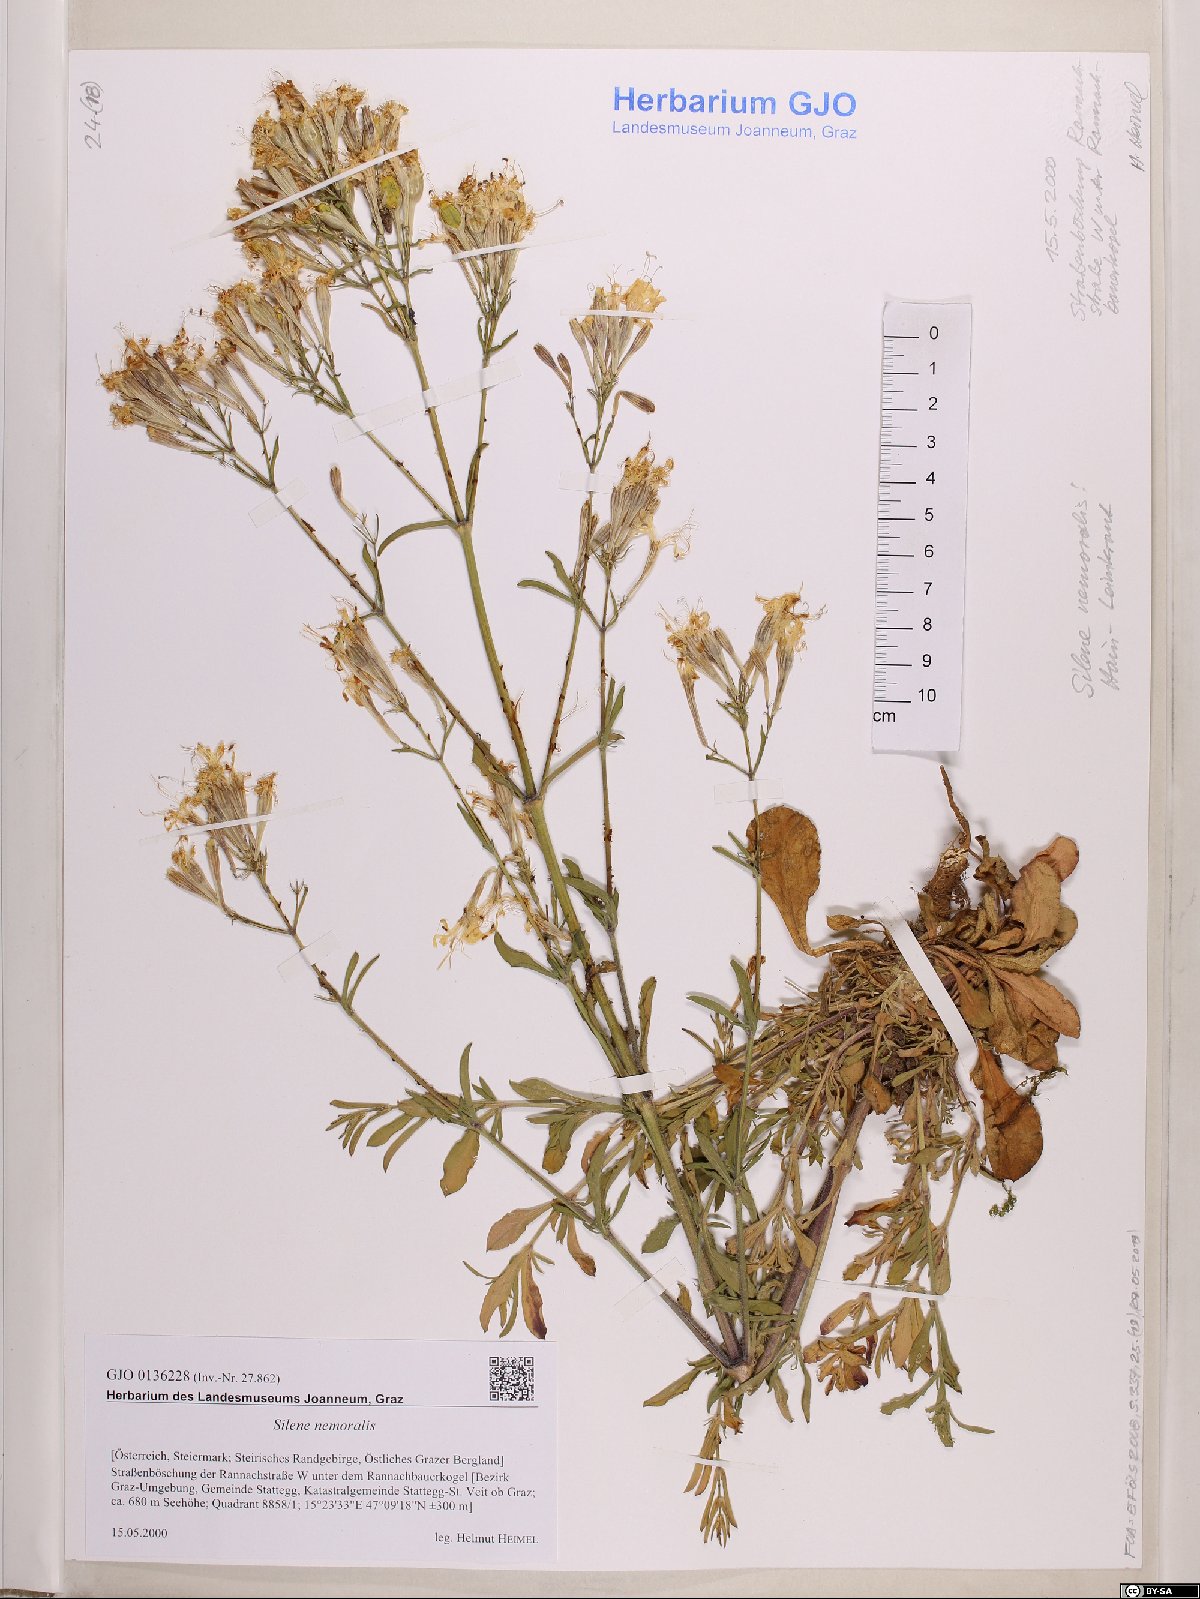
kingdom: Plantae
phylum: Tracheophyta
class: Magnoliopsida
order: Caryophyllales
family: Caryophyllaceae
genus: Silene
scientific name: Silene nemoralis
